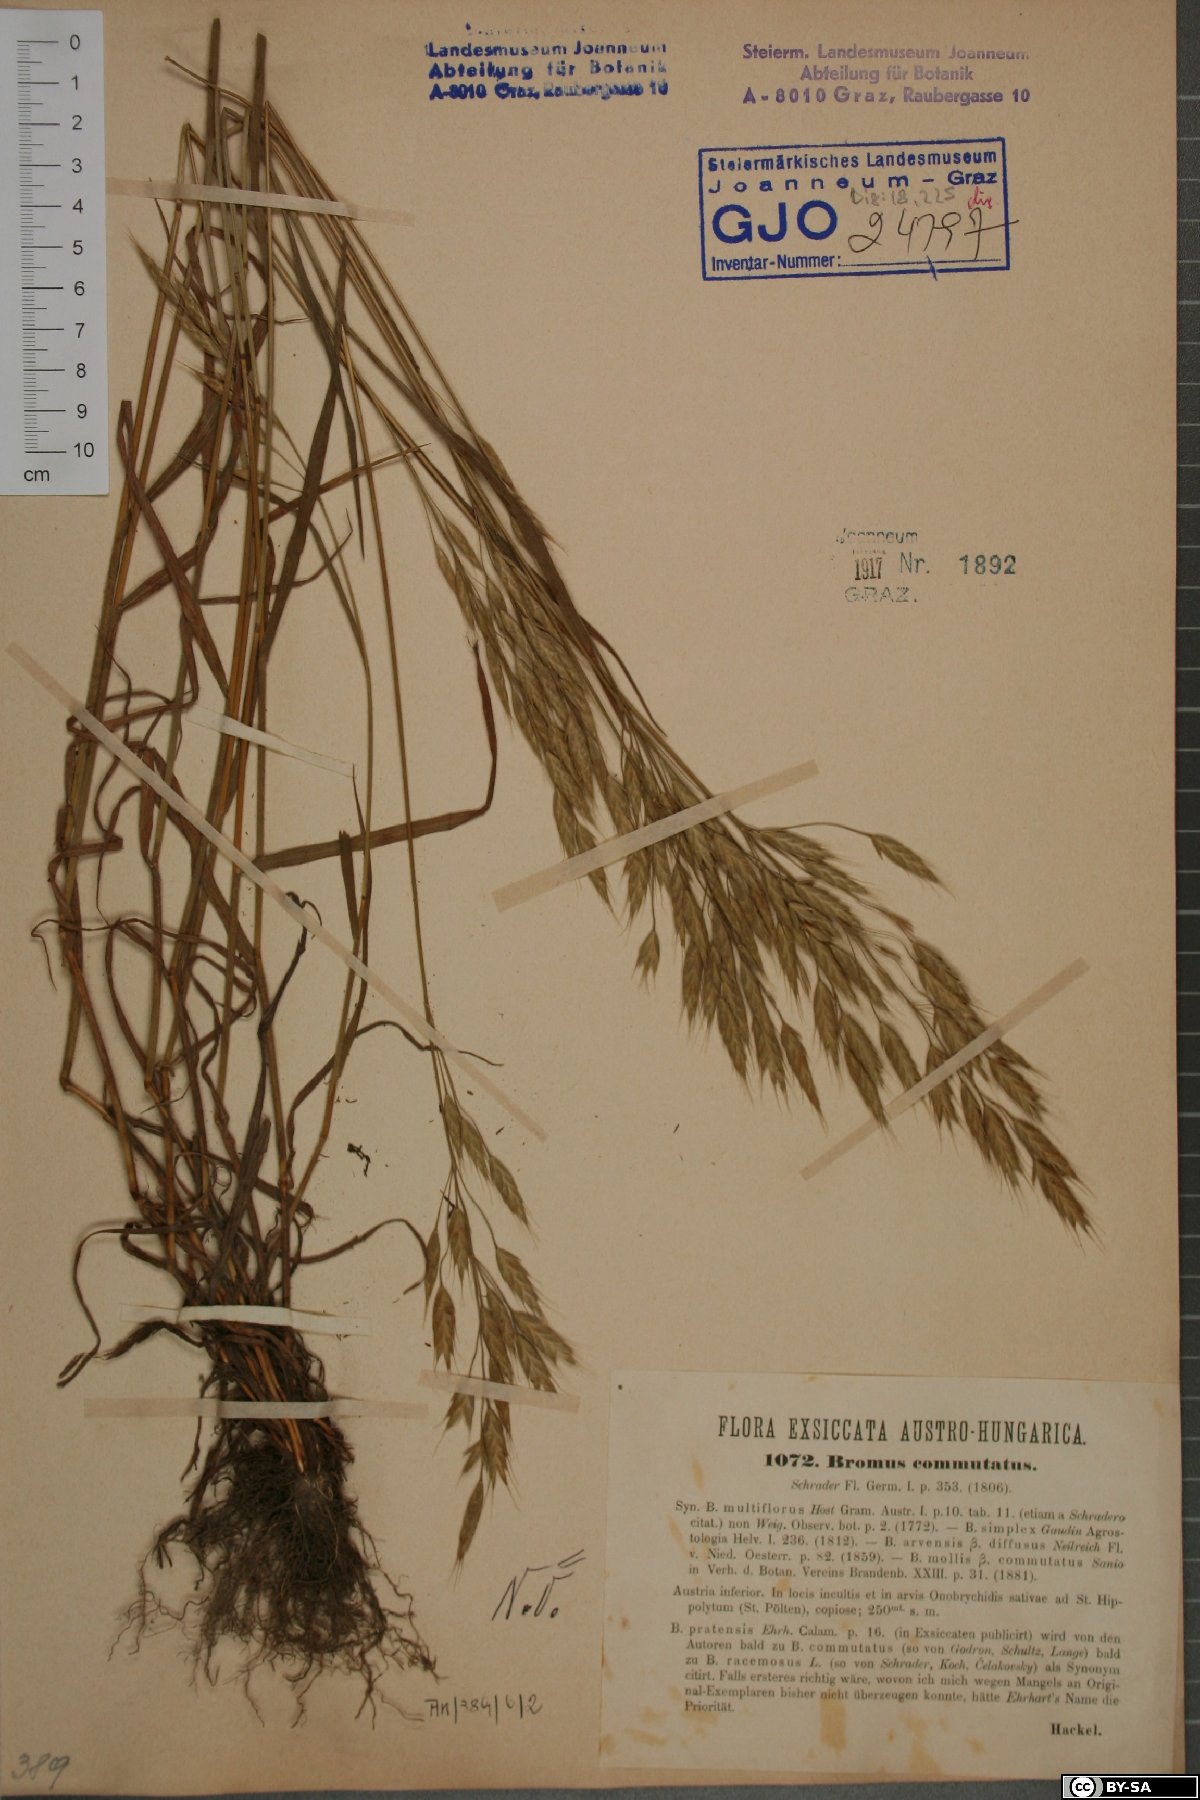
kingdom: Plantae
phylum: Tracheophyta
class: Liliopsida
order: Poales
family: Poaceae
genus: Bromus
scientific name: Bromus commutatus
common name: Meadow brome
